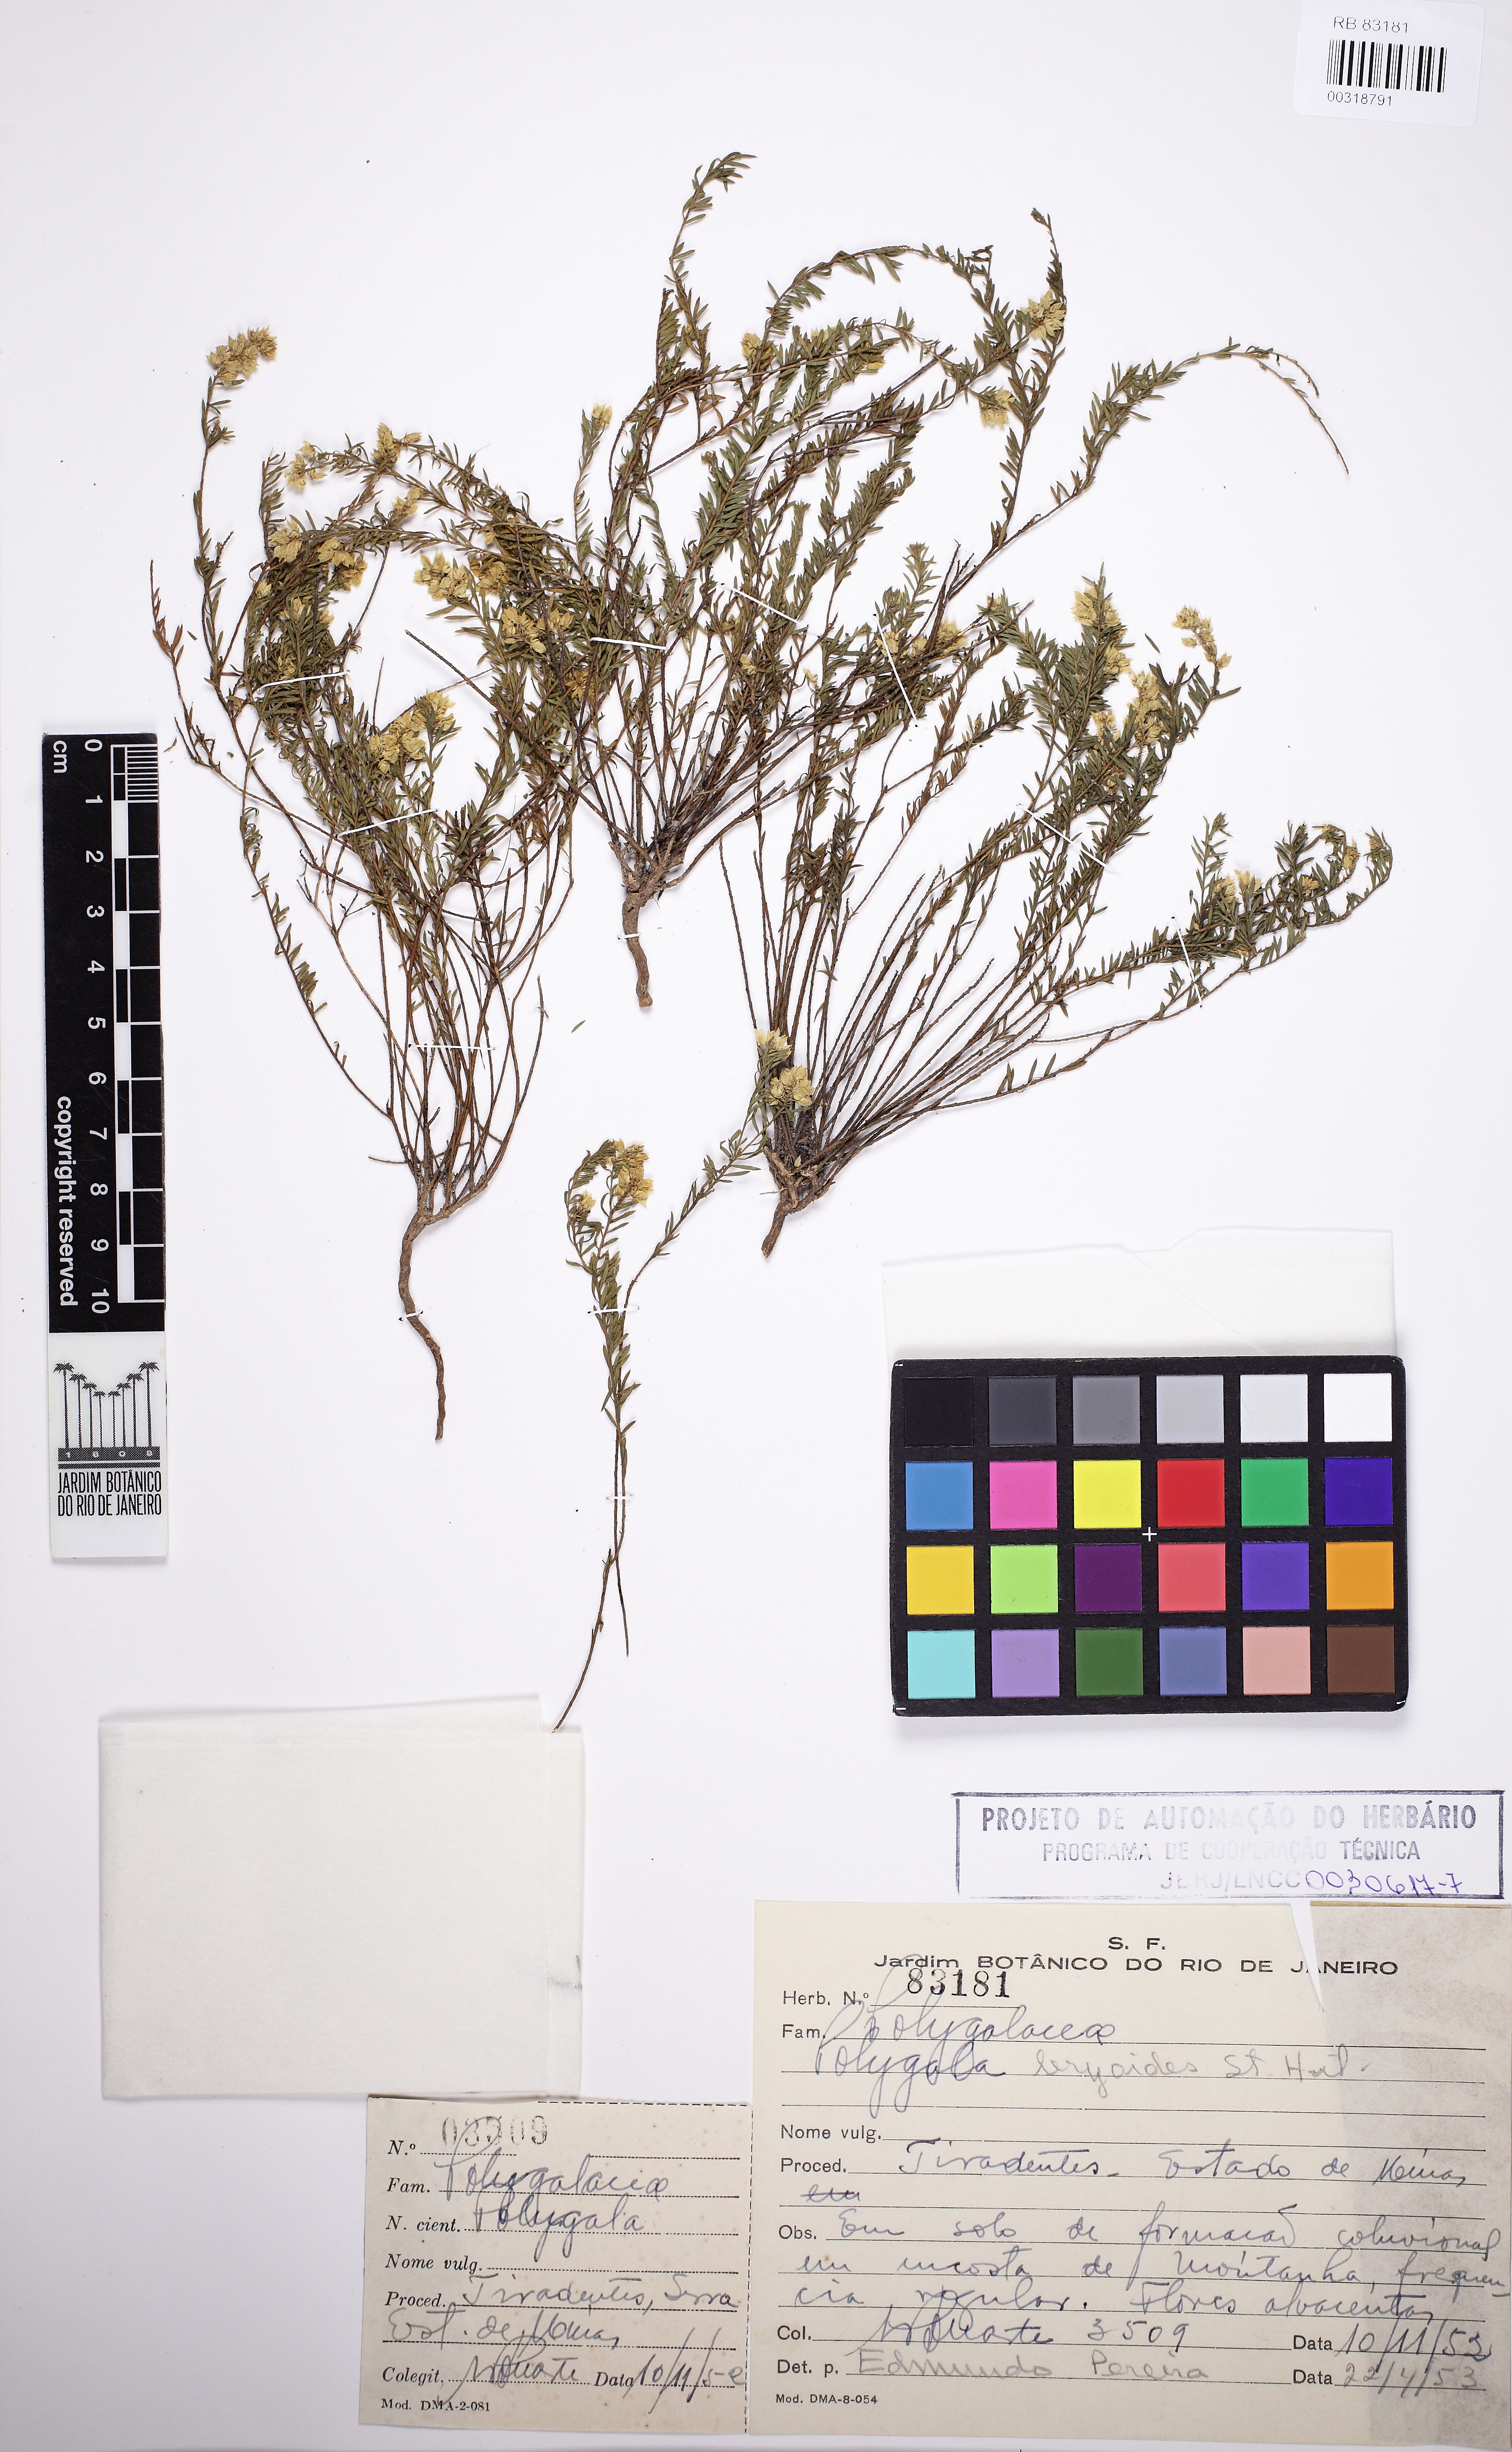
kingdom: Plantae
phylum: Tracheophyta
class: Magnoliopsida
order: Fabales
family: Polygalaceae
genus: Polygala
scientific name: Polygala bryoides
